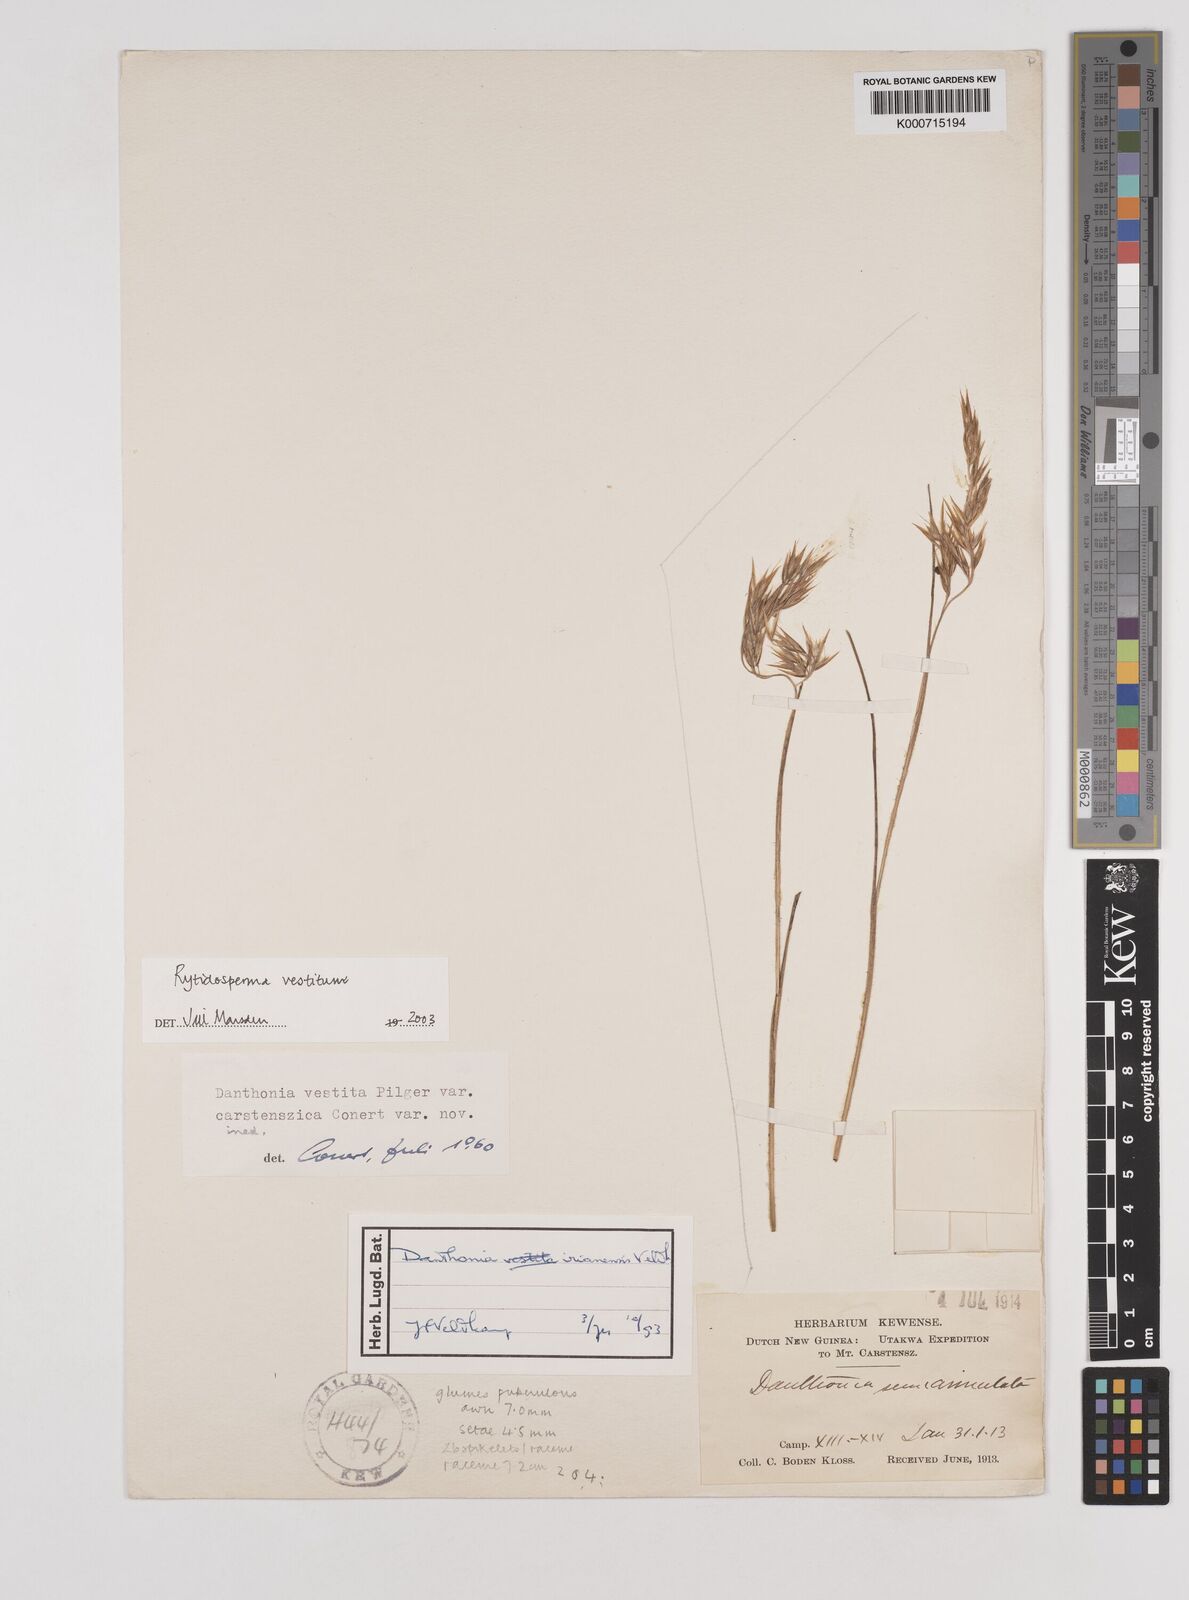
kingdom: Plantae
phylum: Tracheophyta
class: Liliopsida
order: Poales
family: Poaceae
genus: Rytidosperma
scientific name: Rytidosperma vestitum
